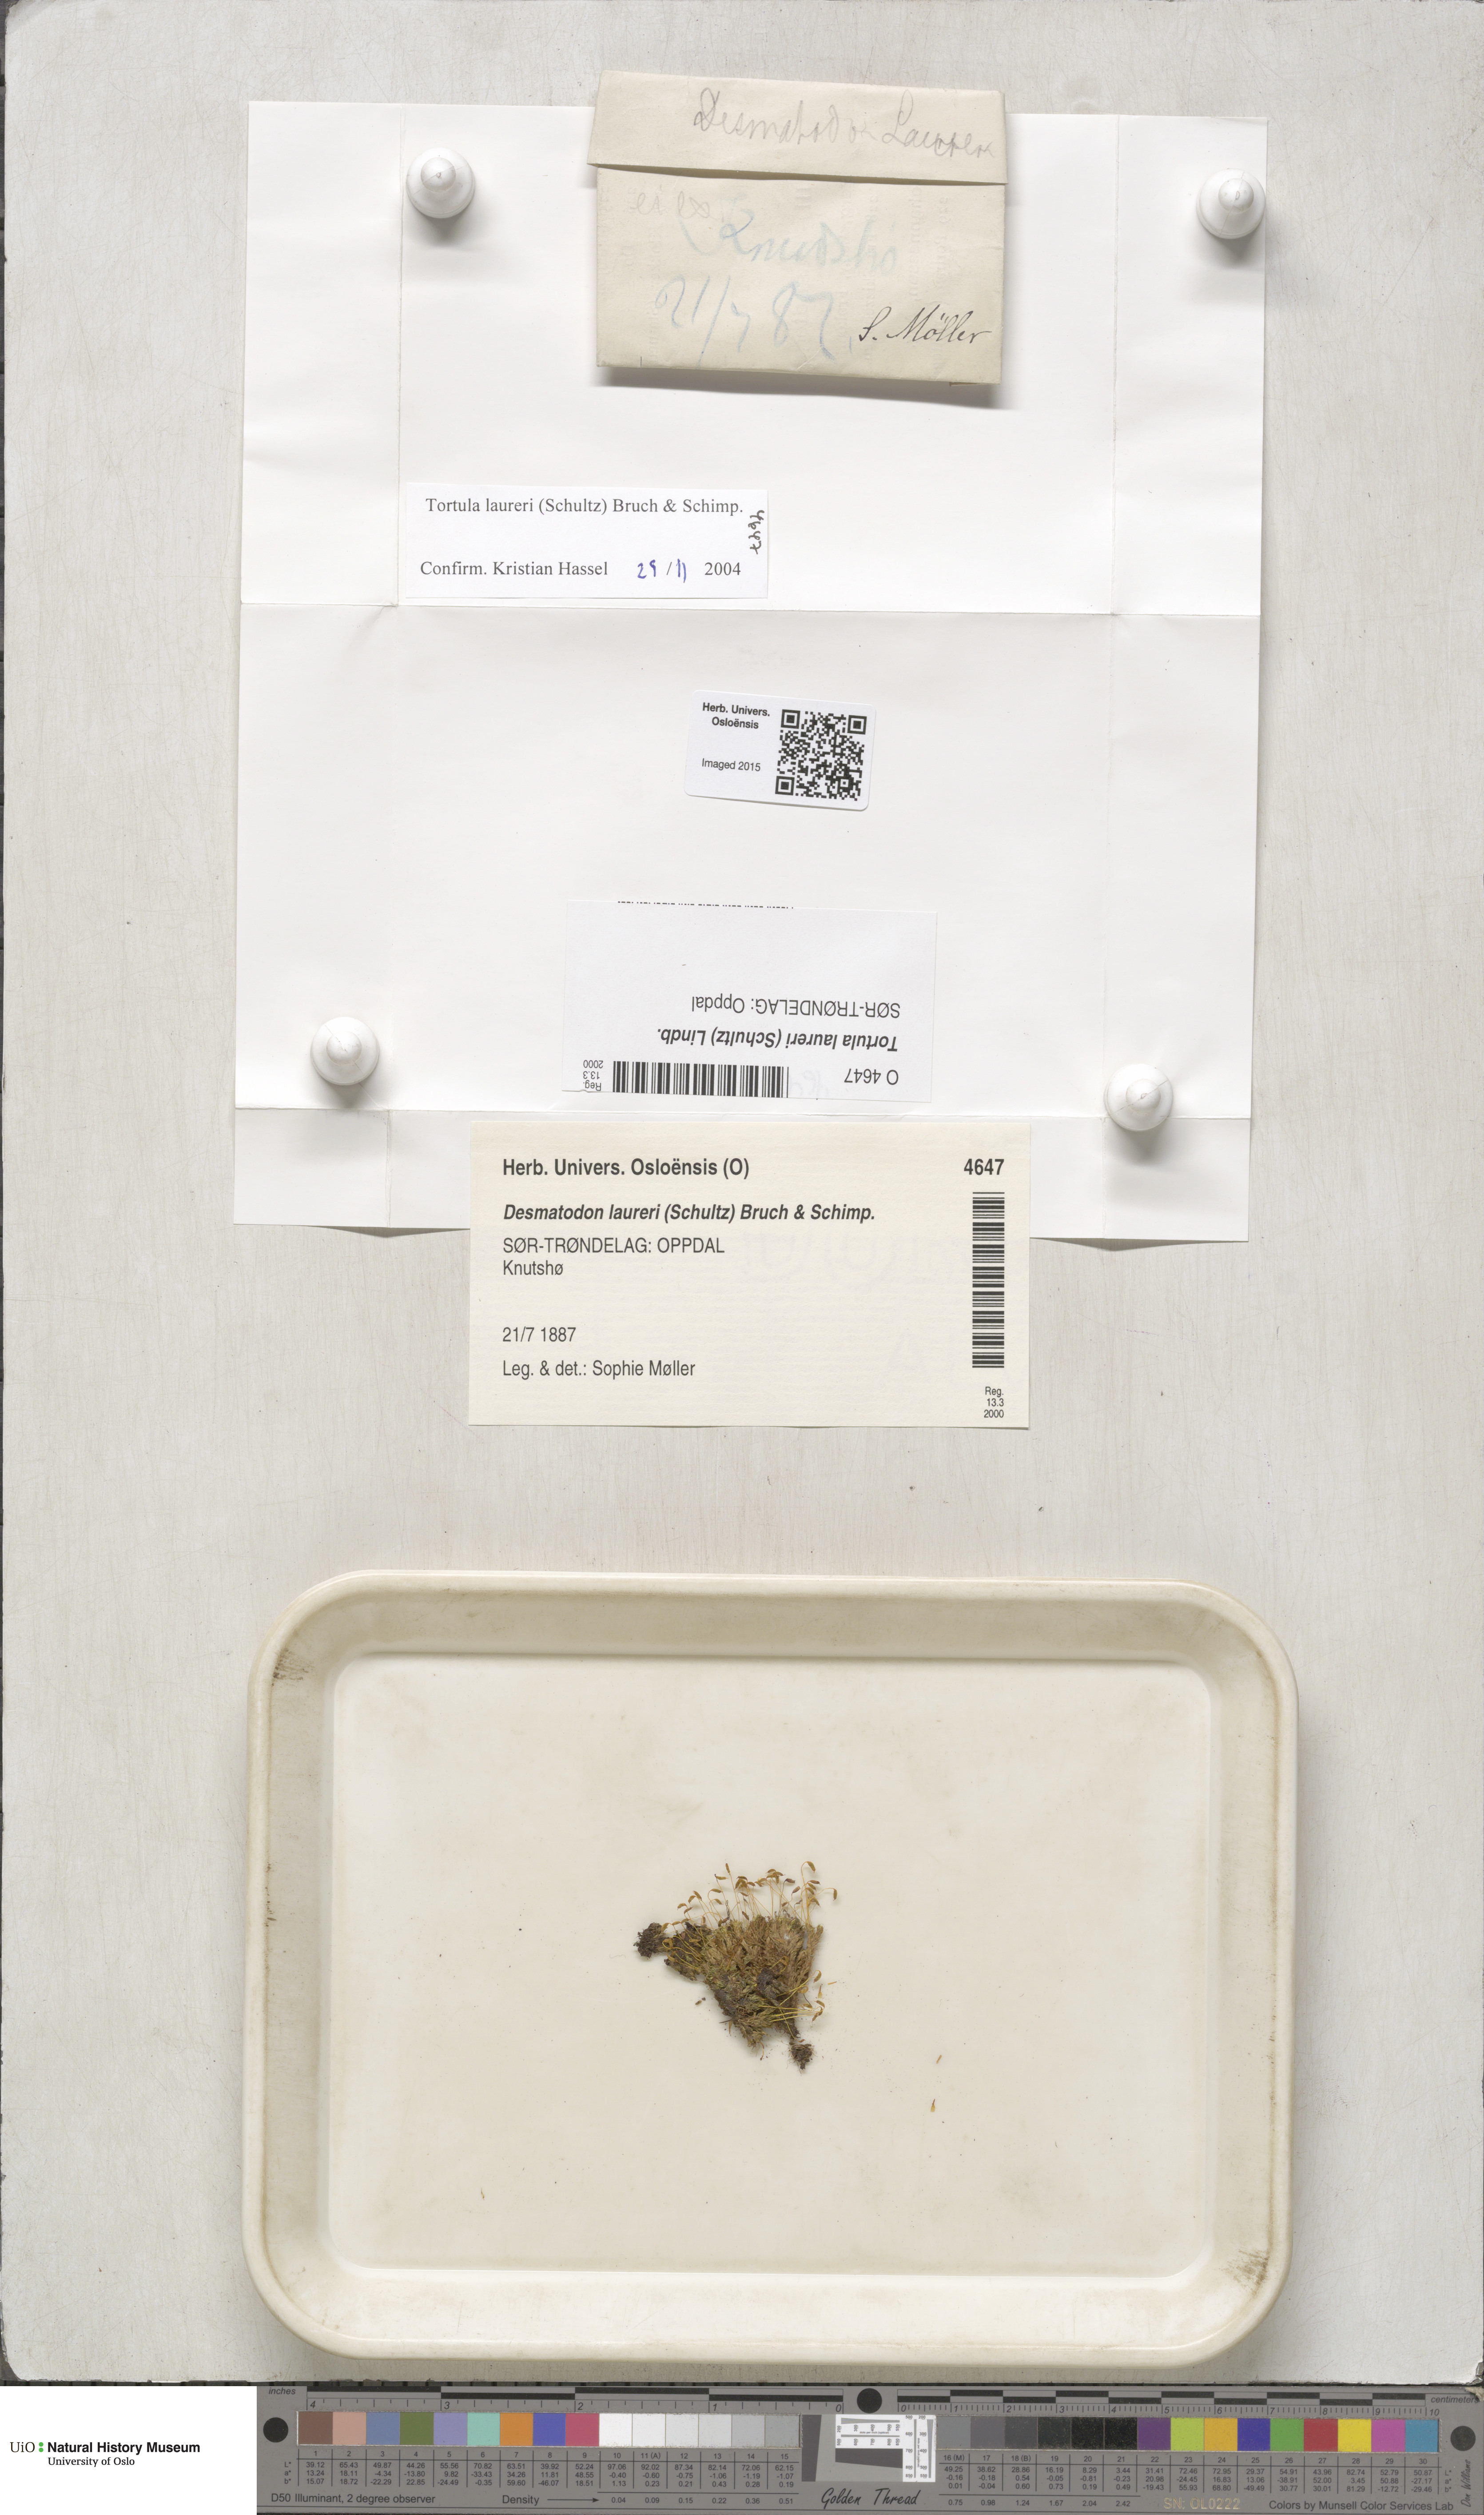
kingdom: Plantae
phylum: Bryophyta
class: Bryopsida
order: Pottiales
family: Pottiaceae
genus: Tortula
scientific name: Tortula laureri
